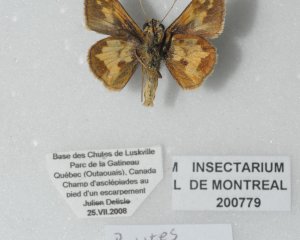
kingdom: Animalia
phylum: Arthropoda
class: Insecta
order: Lepidoptera
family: Hesperiidae
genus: Polites
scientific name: Polites coras
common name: Peck's Skipper
